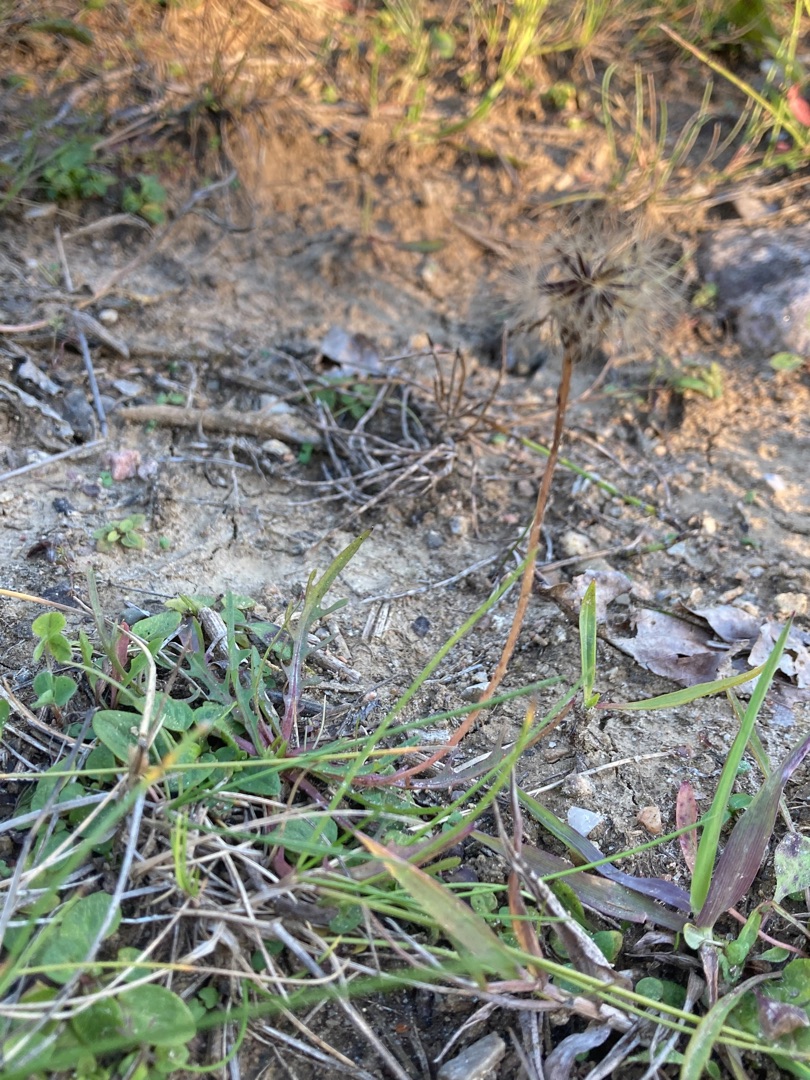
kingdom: Plantae
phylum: Tracheophyta
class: Magnoliopsida
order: Asterales
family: Asteraceae
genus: Scorzoneroides
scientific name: Scorzoneroides autumnalis
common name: Høst-borst
